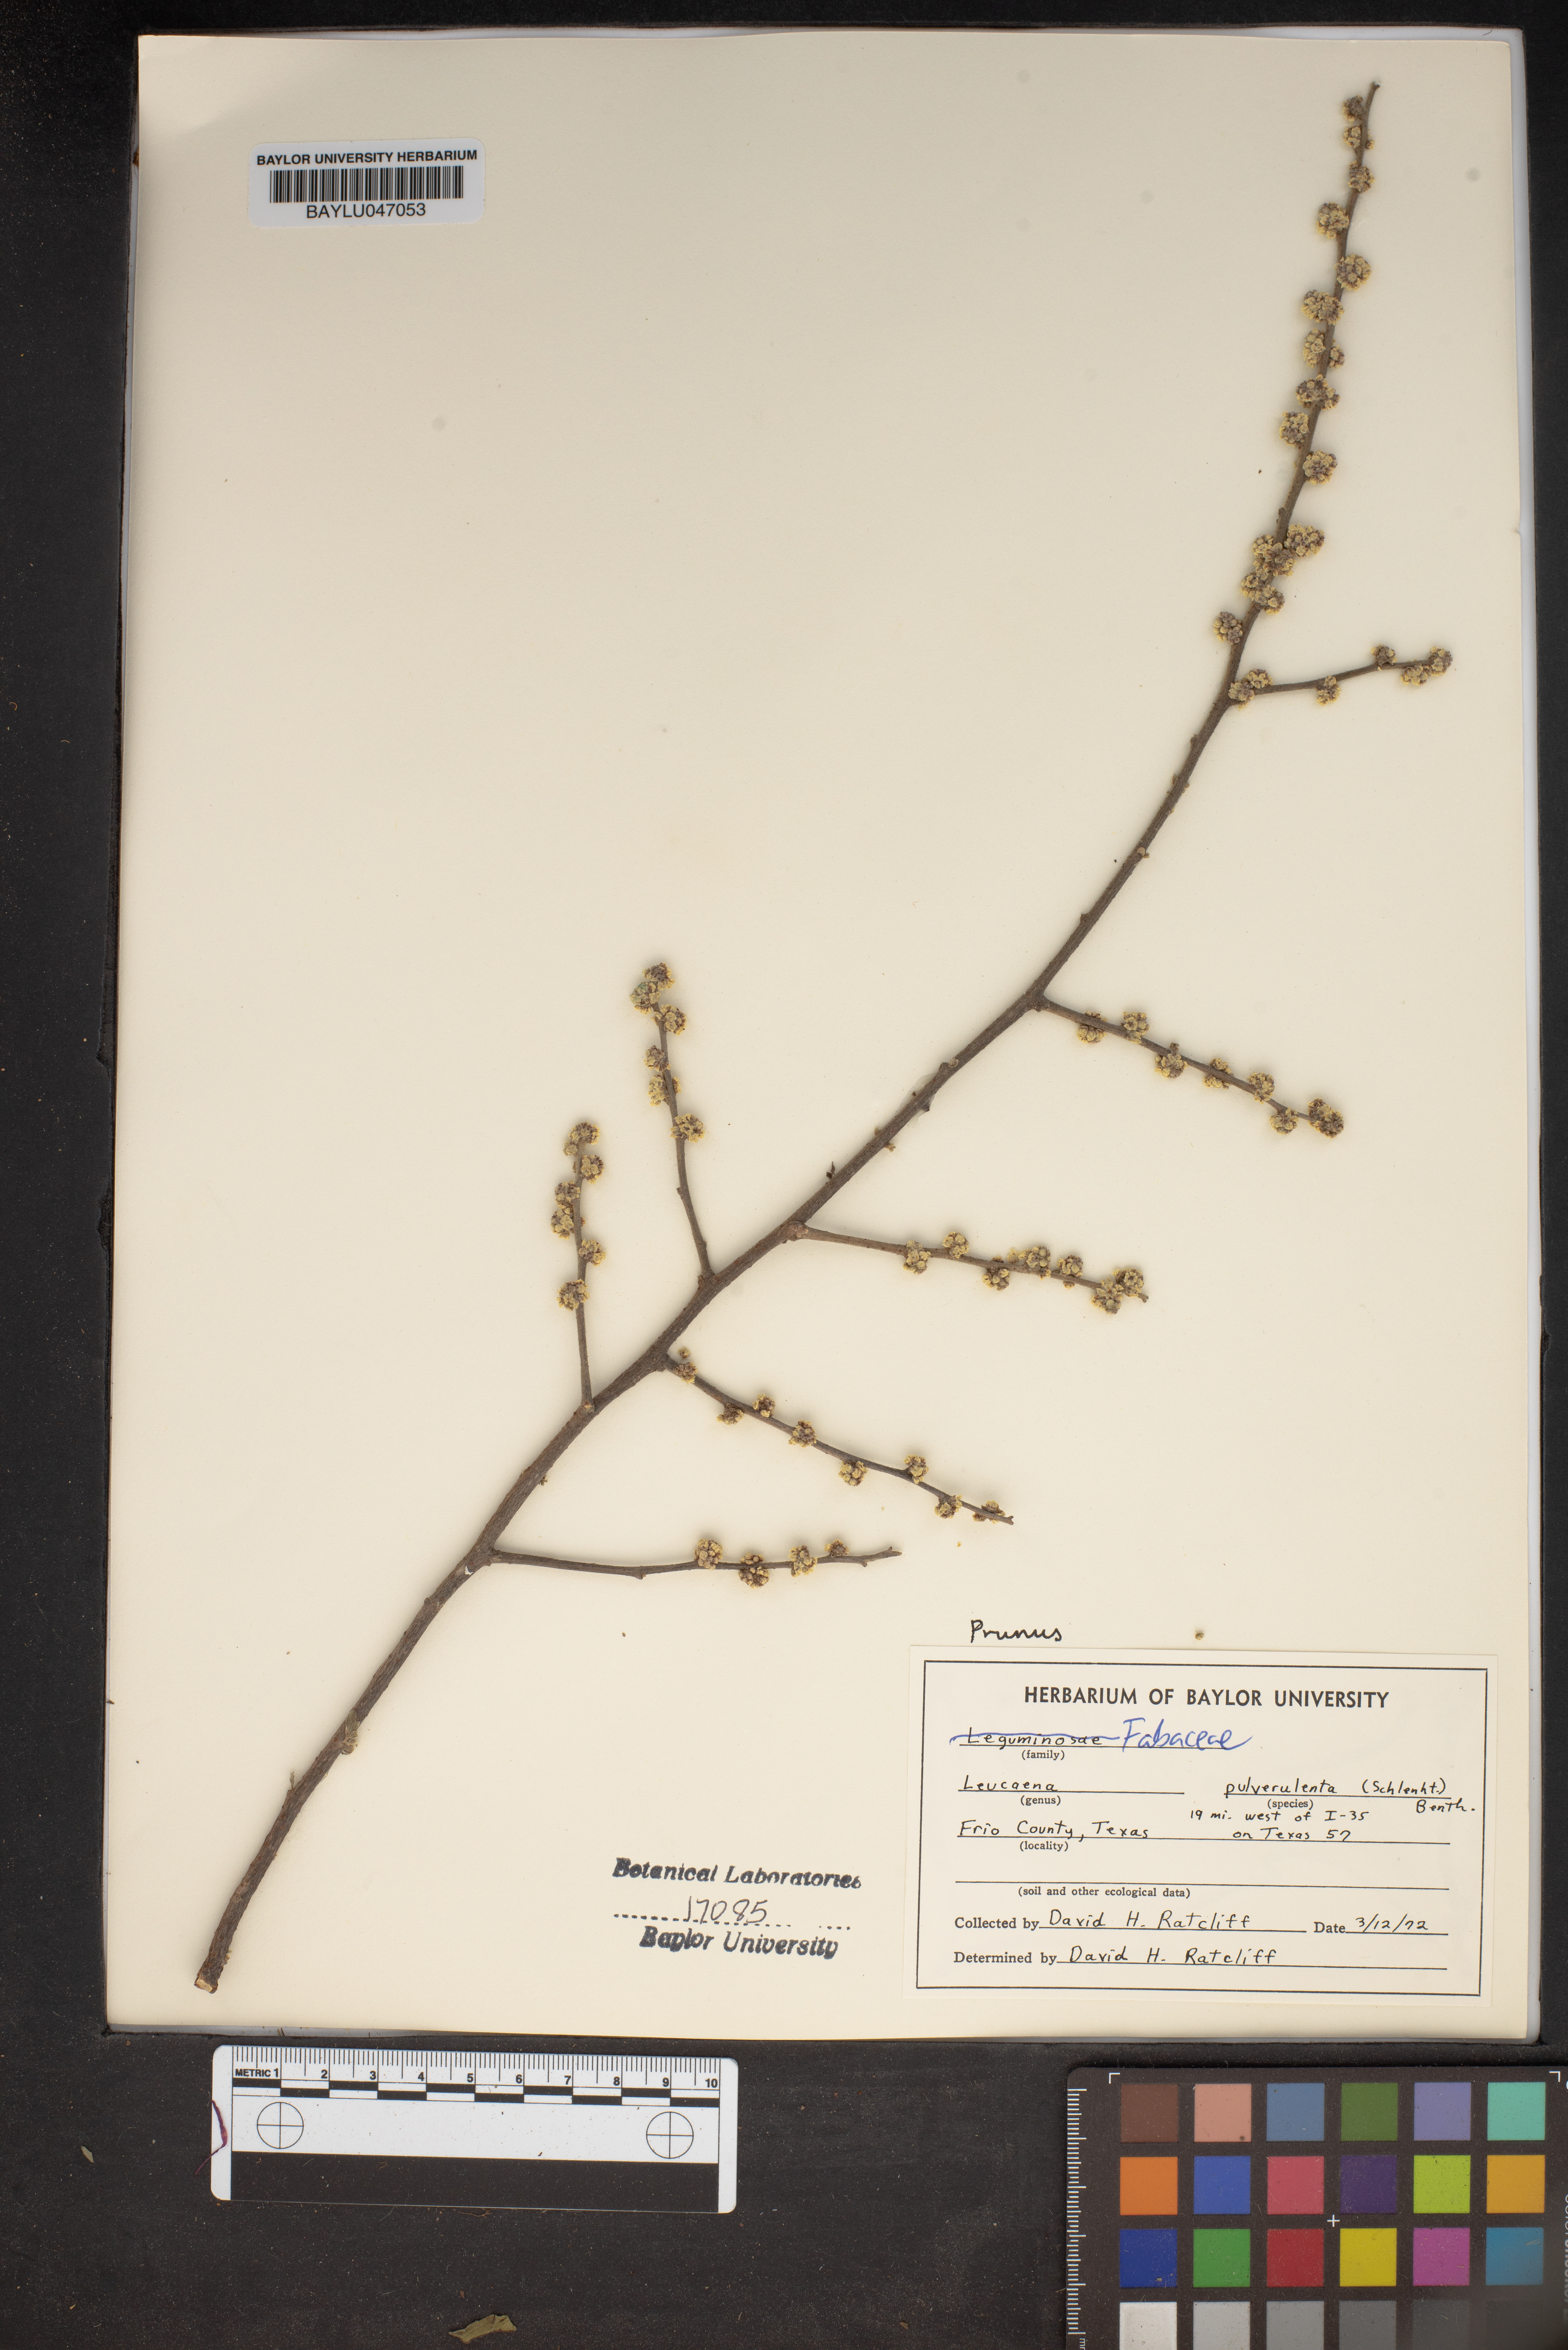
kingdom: Plantae
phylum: Tracheophyta
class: Magnoliopsida
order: Fabales
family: Fabaceae
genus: Leucaena
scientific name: Leucaena pulverulenta
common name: Great leadtree
